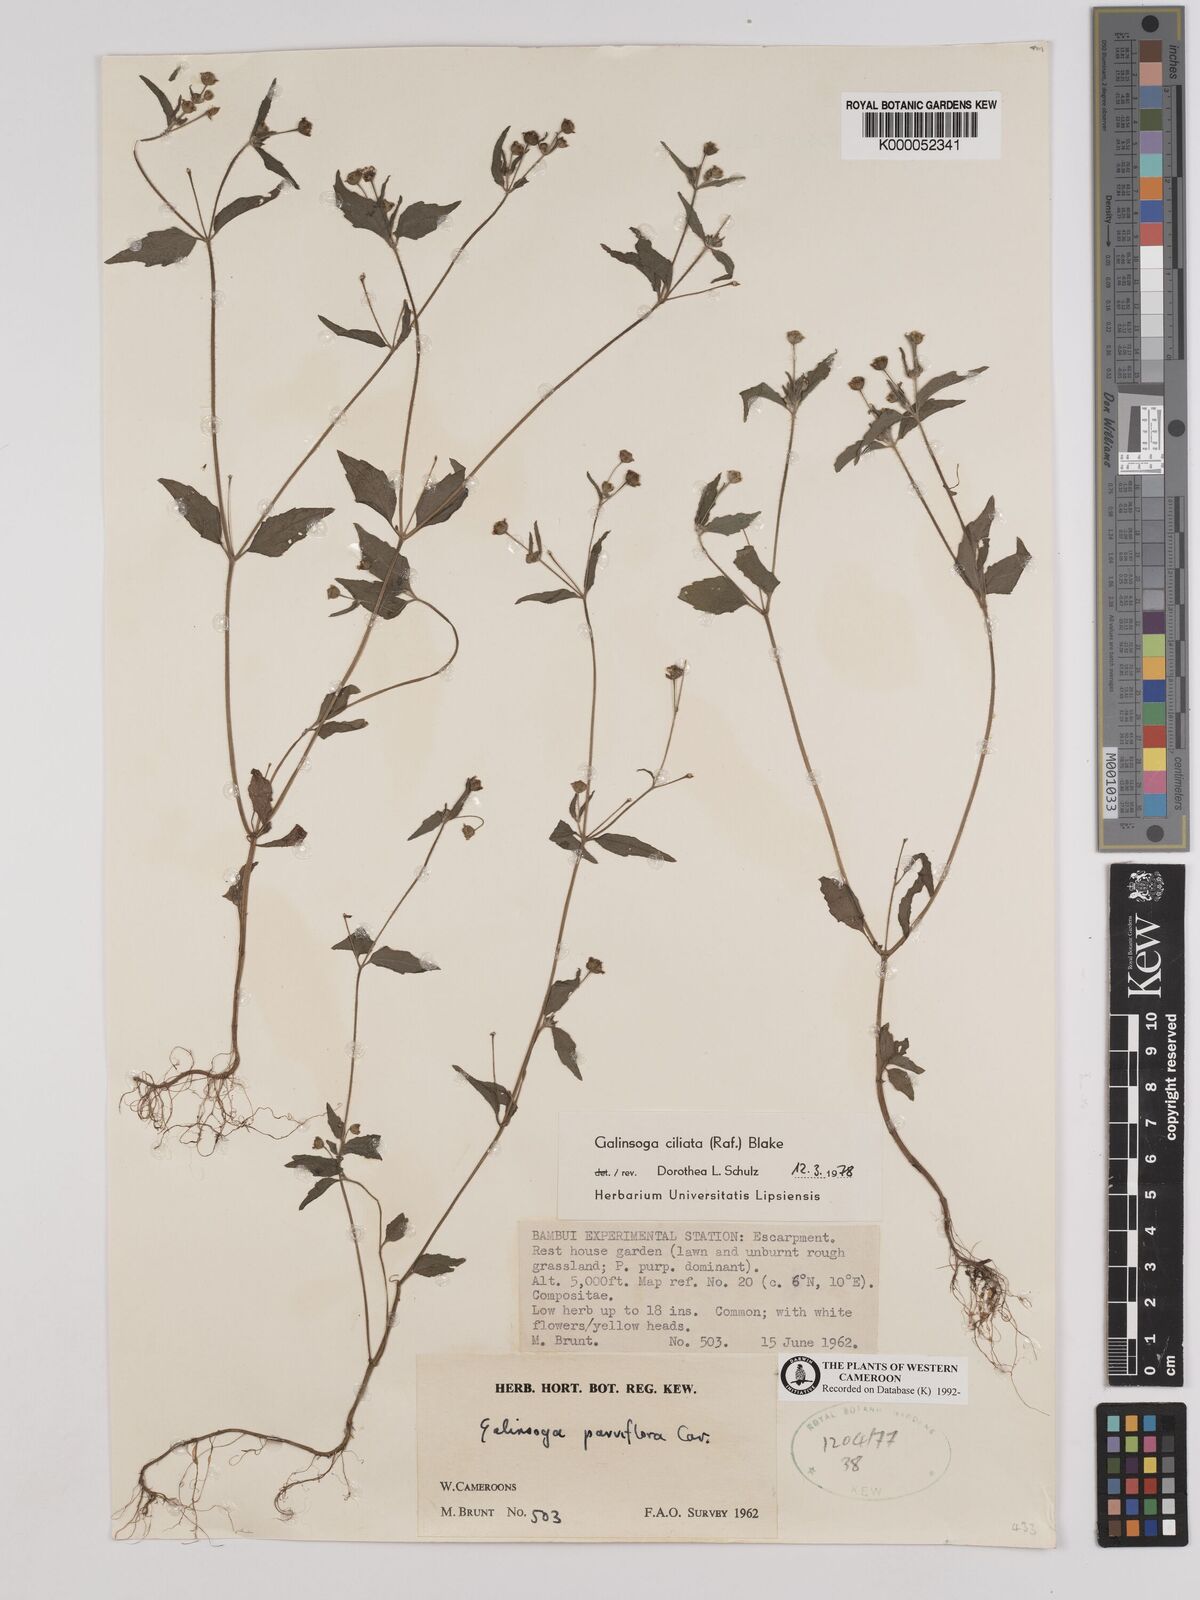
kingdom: Plantae
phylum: Tracheophyta
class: Magnoliopsida
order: Asterales
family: Asteraceae
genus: Galinsoga
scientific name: Galinsoga quadriradiata
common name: Shaggy soldier
